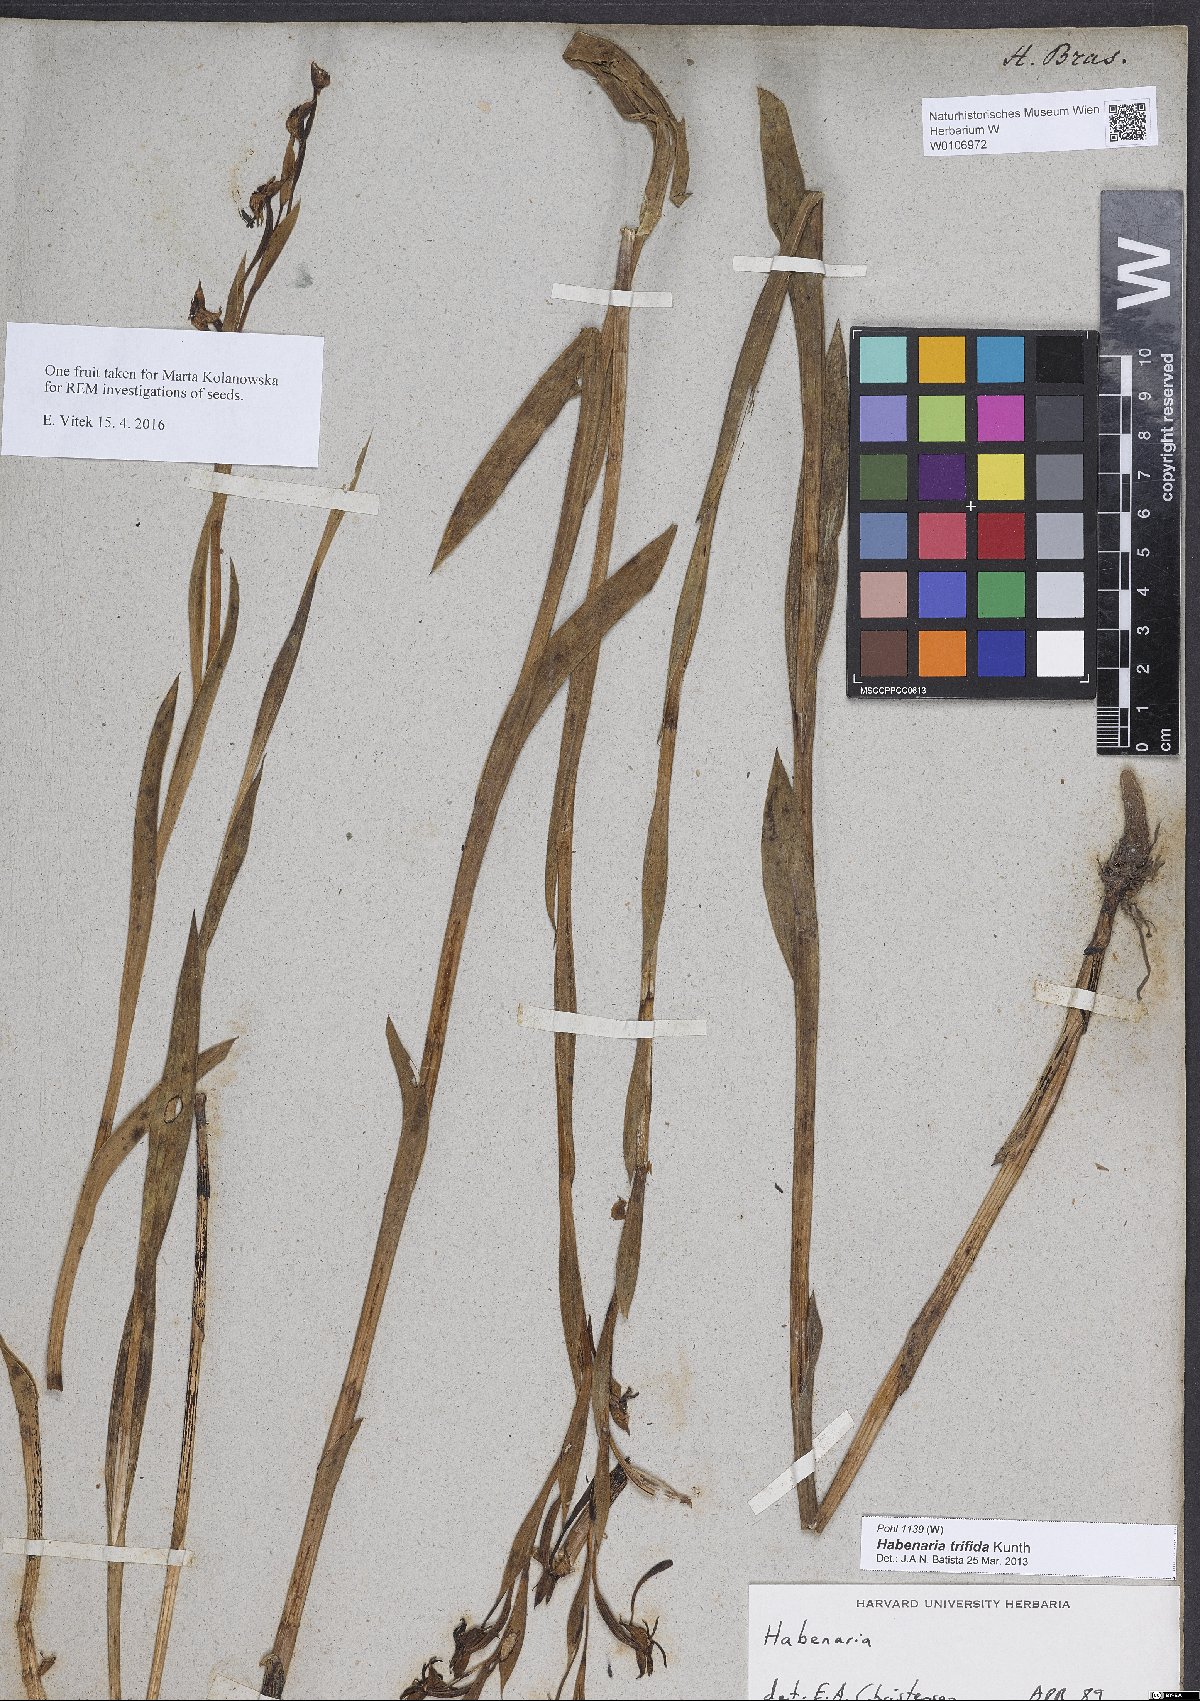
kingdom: Plantae
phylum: Tracheophyta
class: Liliopsida
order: Asparagales
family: Orchidaceae
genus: Habenaria
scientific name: Habenaria trifida
